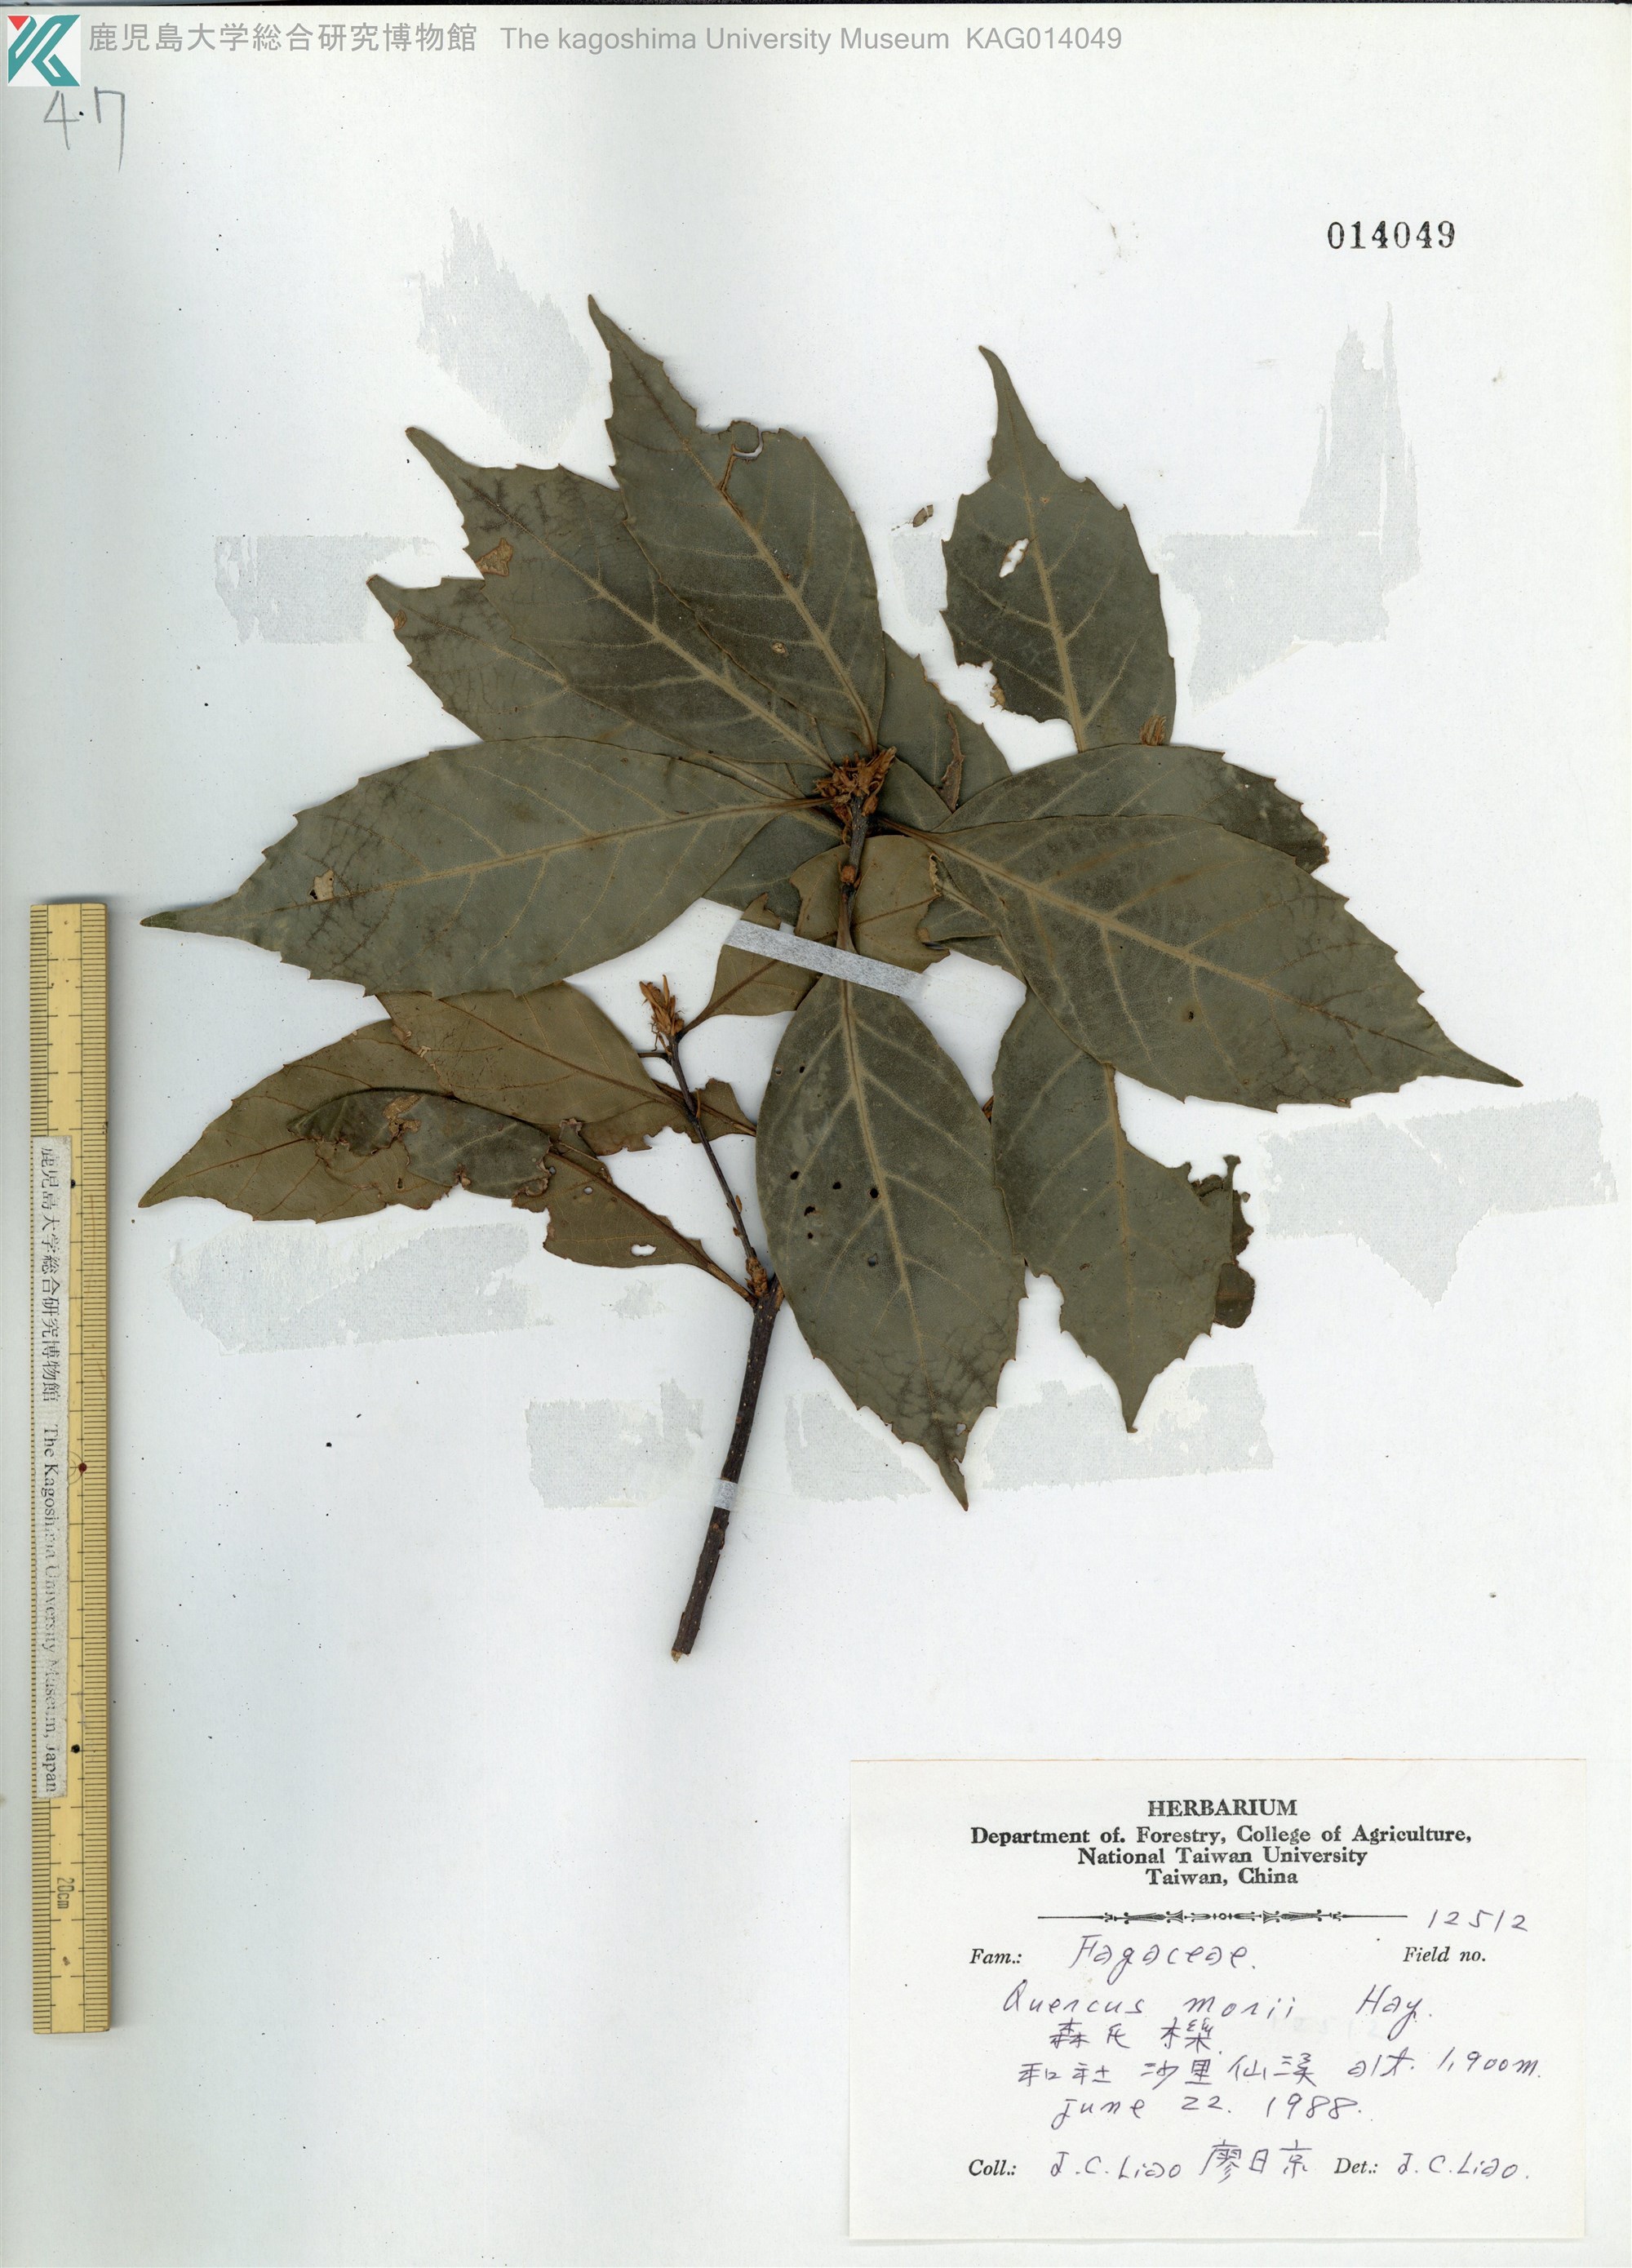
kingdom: Plantae
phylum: Tracheophyta
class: Magnoliopsida
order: Fagales
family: Fagaceae
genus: Quercus
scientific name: Quercus morii
